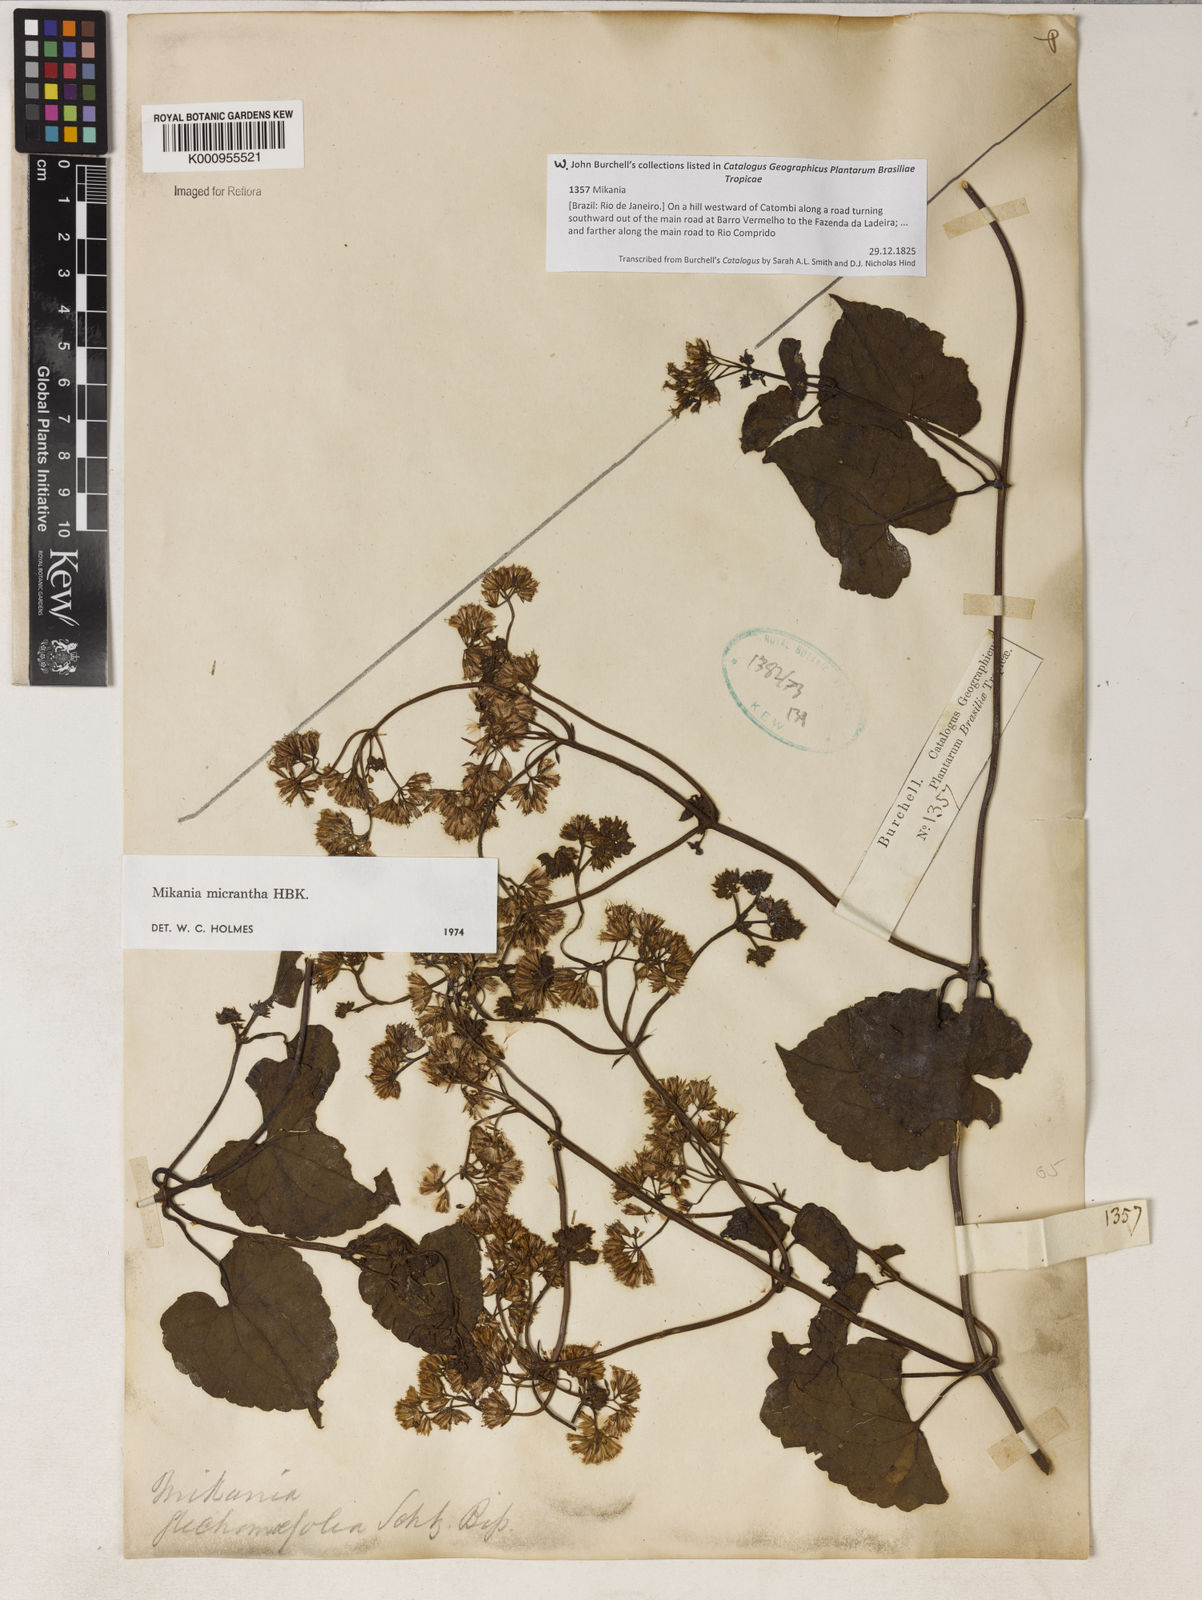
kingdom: Plantae
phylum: Tracheophyta
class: Magnoliopsida
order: Asterales
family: Asteraceae
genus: Mikania
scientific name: Mikania
